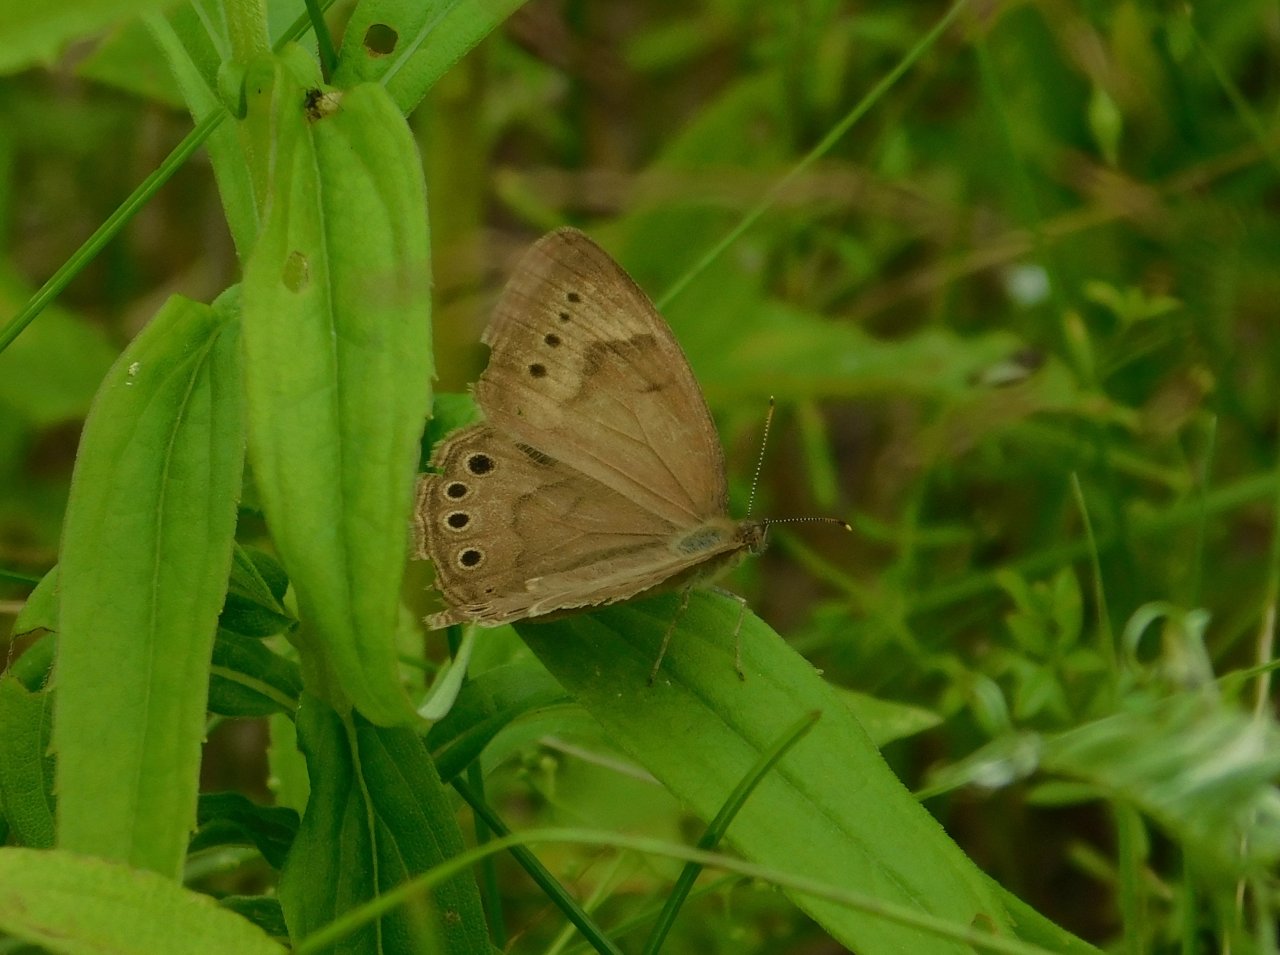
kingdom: Animalia
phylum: Arthropoda
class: Insecta
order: Lepidoptera
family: Nymphalidae
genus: Lethe
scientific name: Lethe eurydice
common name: Eyed Brown
